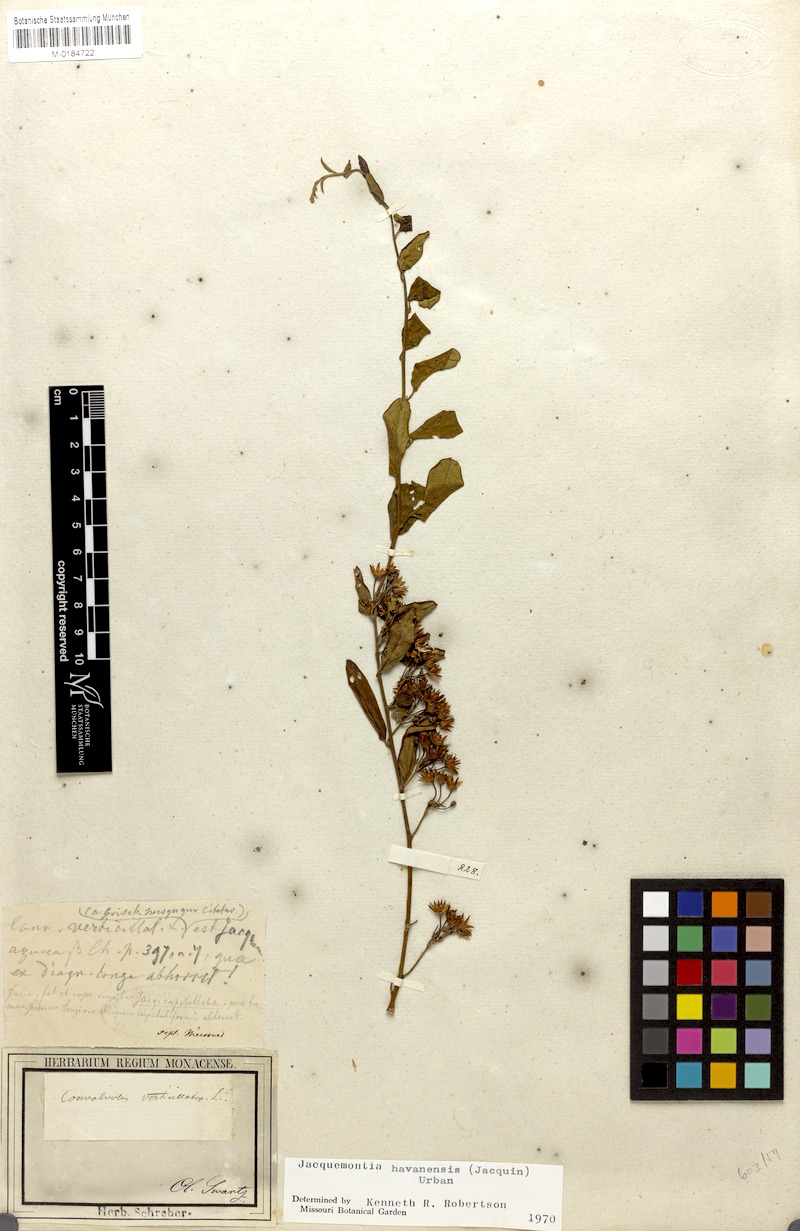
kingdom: Plantae
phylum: Tracheophyta
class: Magnoliopsida
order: Solanales
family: Convolvulaceae
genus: Jacquemontia
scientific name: Jacquemontia havanensis
